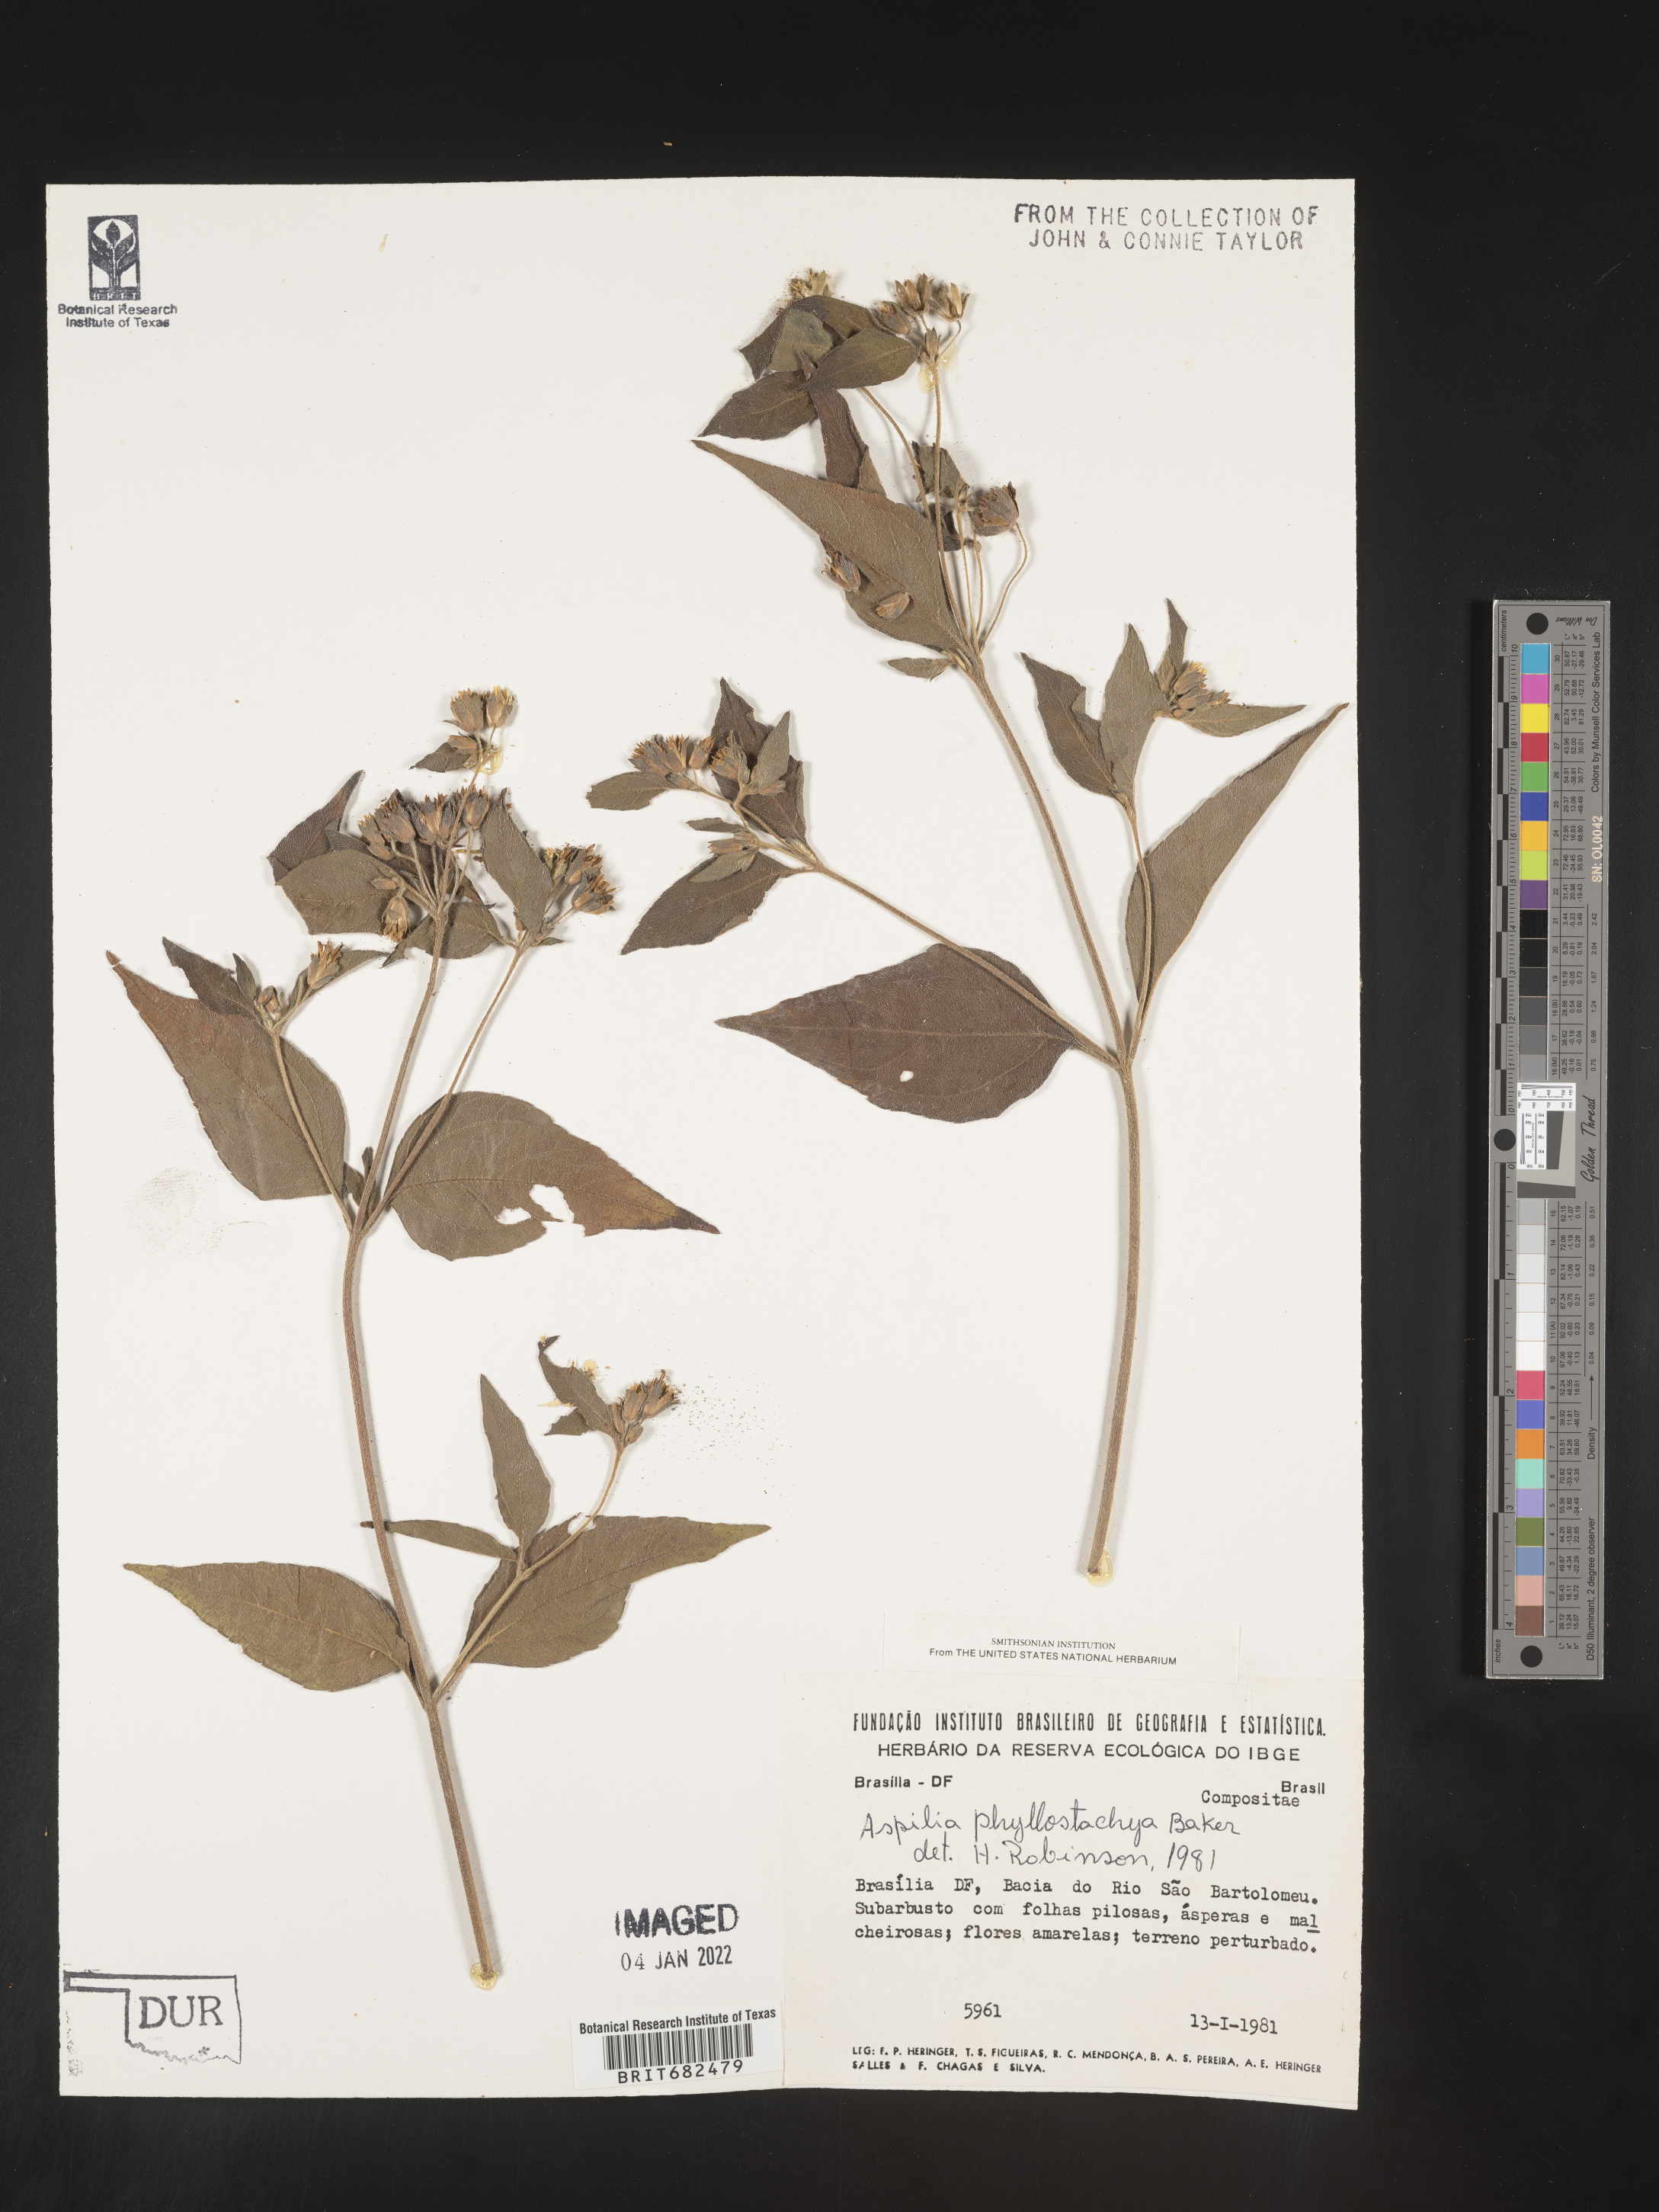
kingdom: Plantae
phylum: Tracheophyta
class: Magnoliopsida
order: Asterales
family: Asteraceae
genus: Aspilia
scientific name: Aspilia
